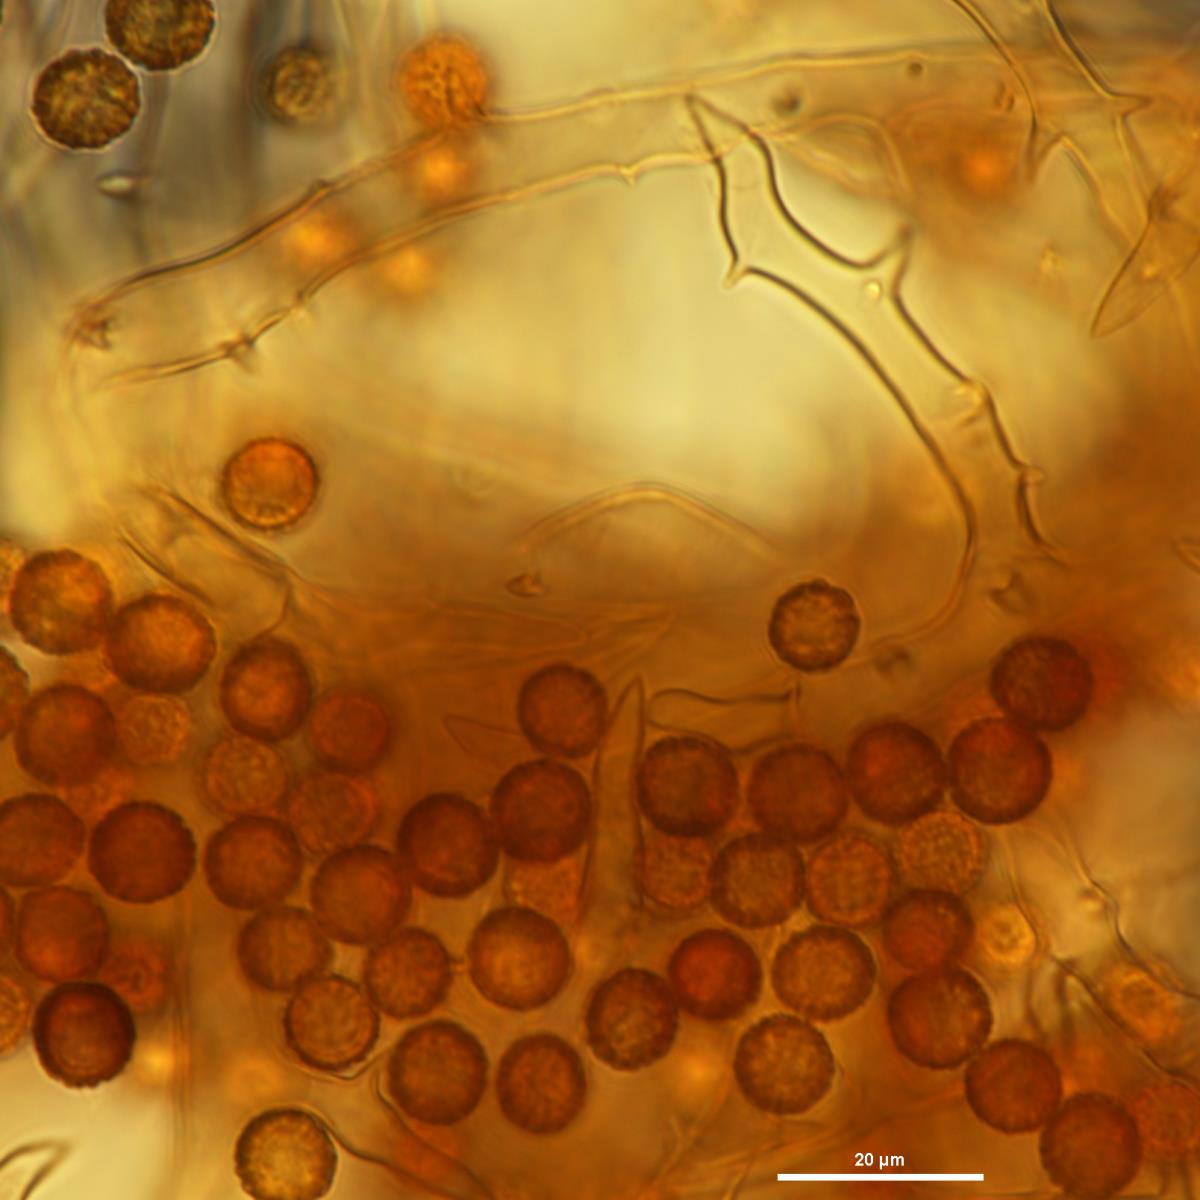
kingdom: Fungi
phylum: Basidiomycota
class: Agaricomycetes
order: Agaricales
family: Agaricaceae
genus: Mycenastrum
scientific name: Mycenastrum corium
